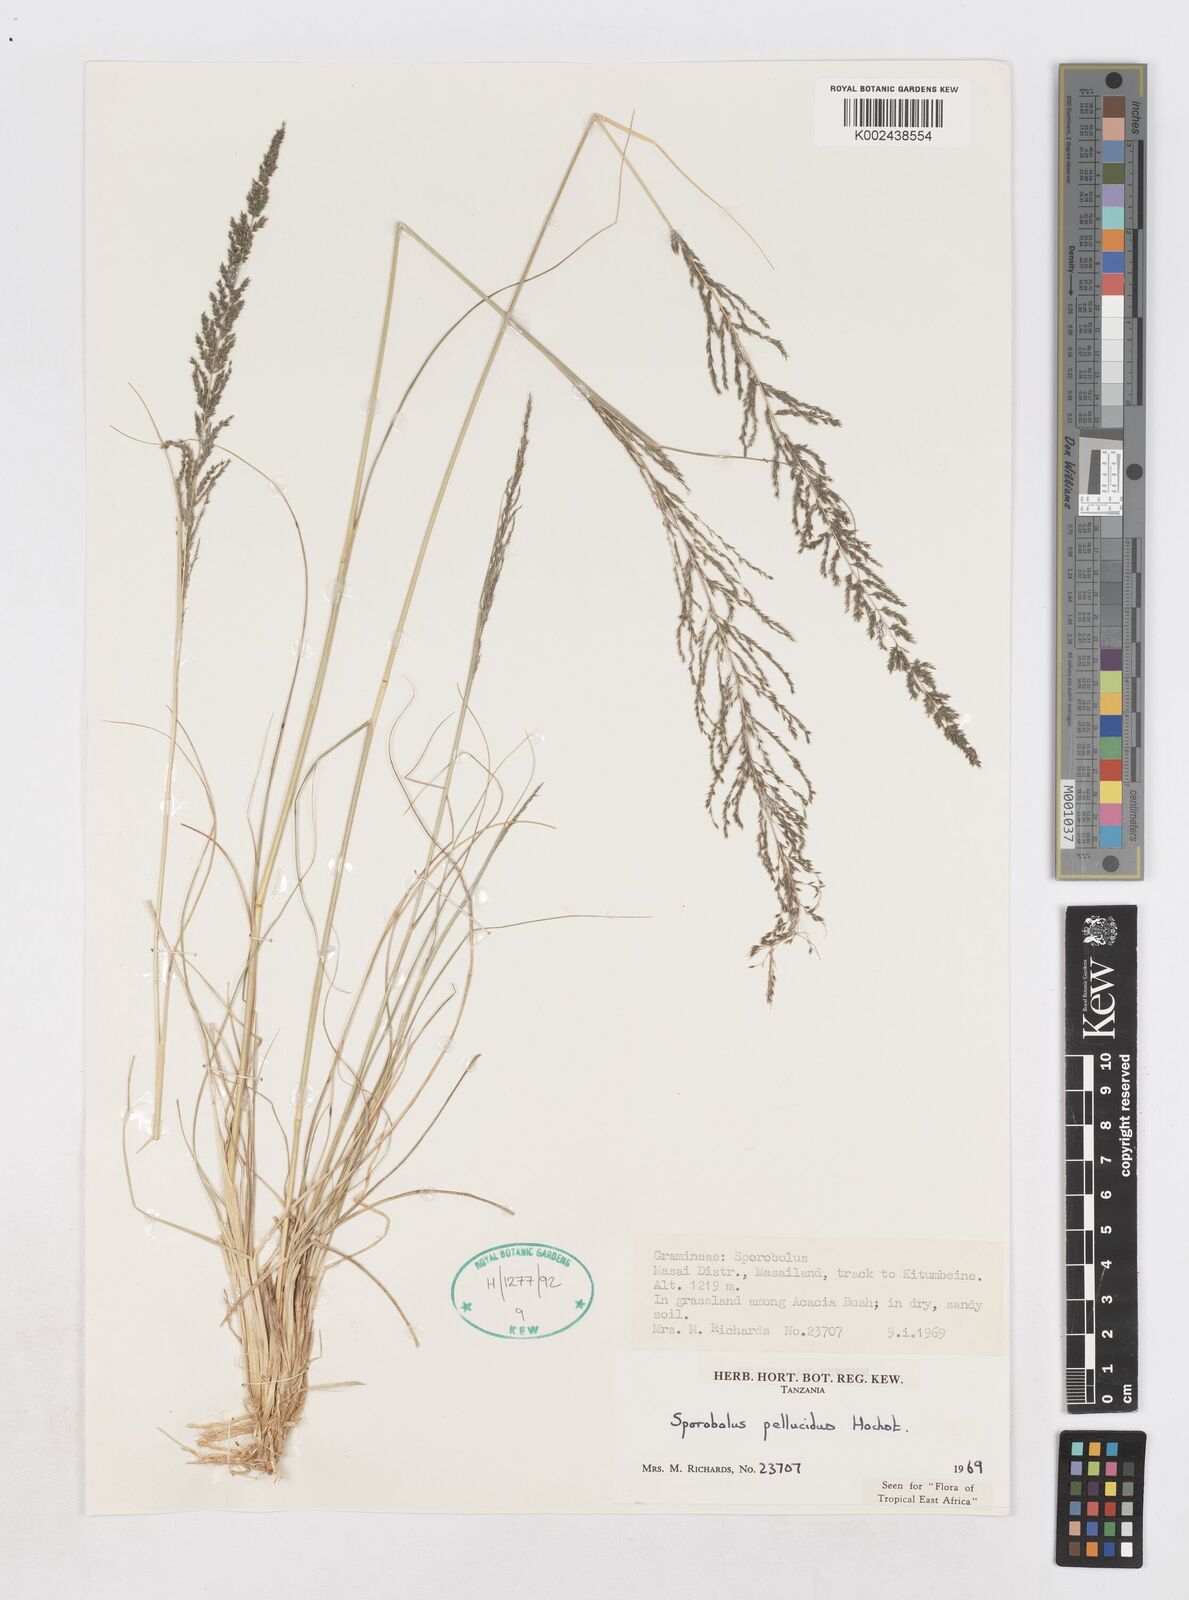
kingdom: Plantae
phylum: Tracheophyta
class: Liliopsida
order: Poales
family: Poaceae
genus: Sporobolus
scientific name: Sporobolus pellucidus
